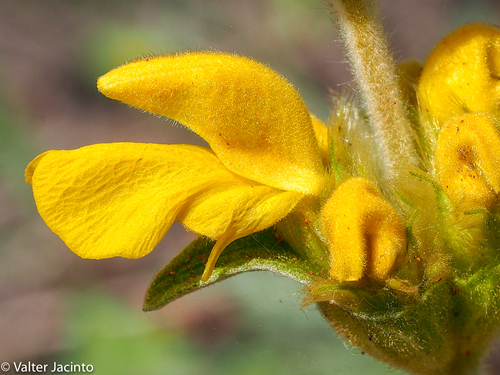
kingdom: Plantae
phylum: Tracheophyta
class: Magnoliopsida
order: Lamiales
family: Lamiaceae
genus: Phlomis
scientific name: Phlomis lychnitis
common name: Lampwickplant
